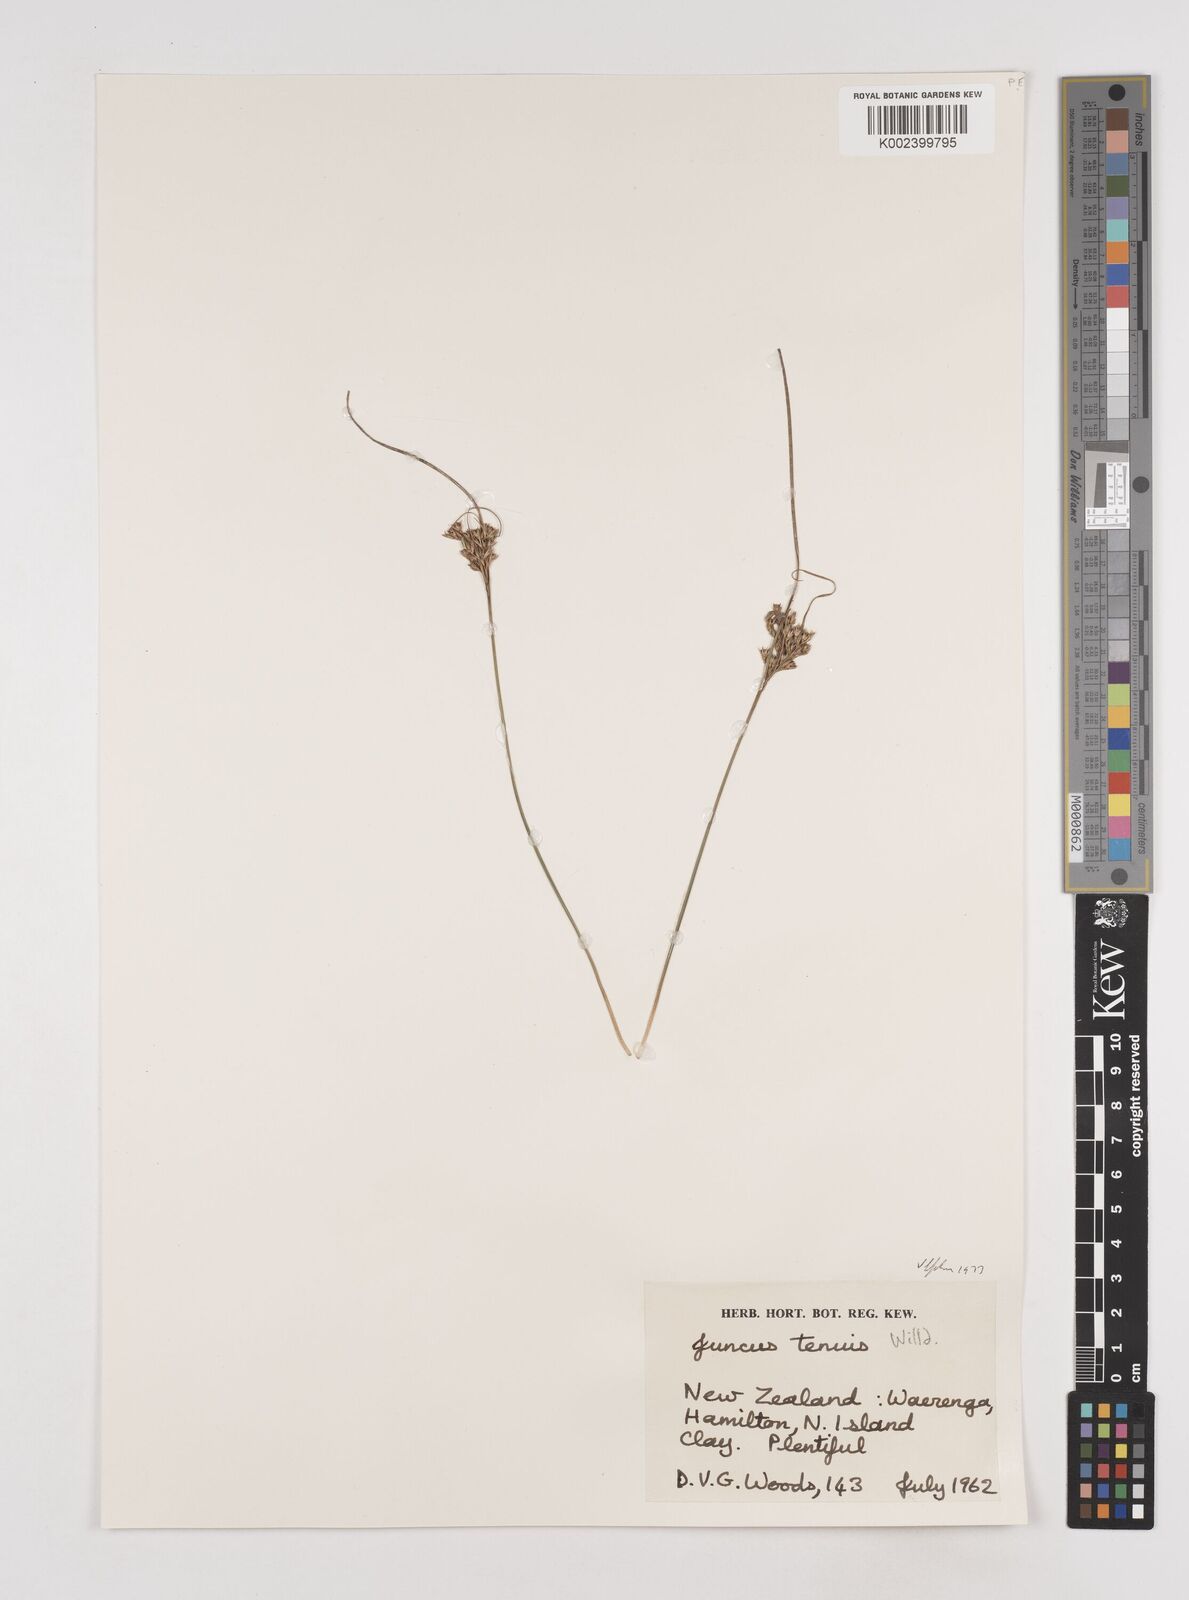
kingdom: Plantae
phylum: Tracheophyta
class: Liliopsida
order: Poales
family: Juncaceae
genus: Juncus
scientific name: Juncus tenuis
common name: Slender rush
